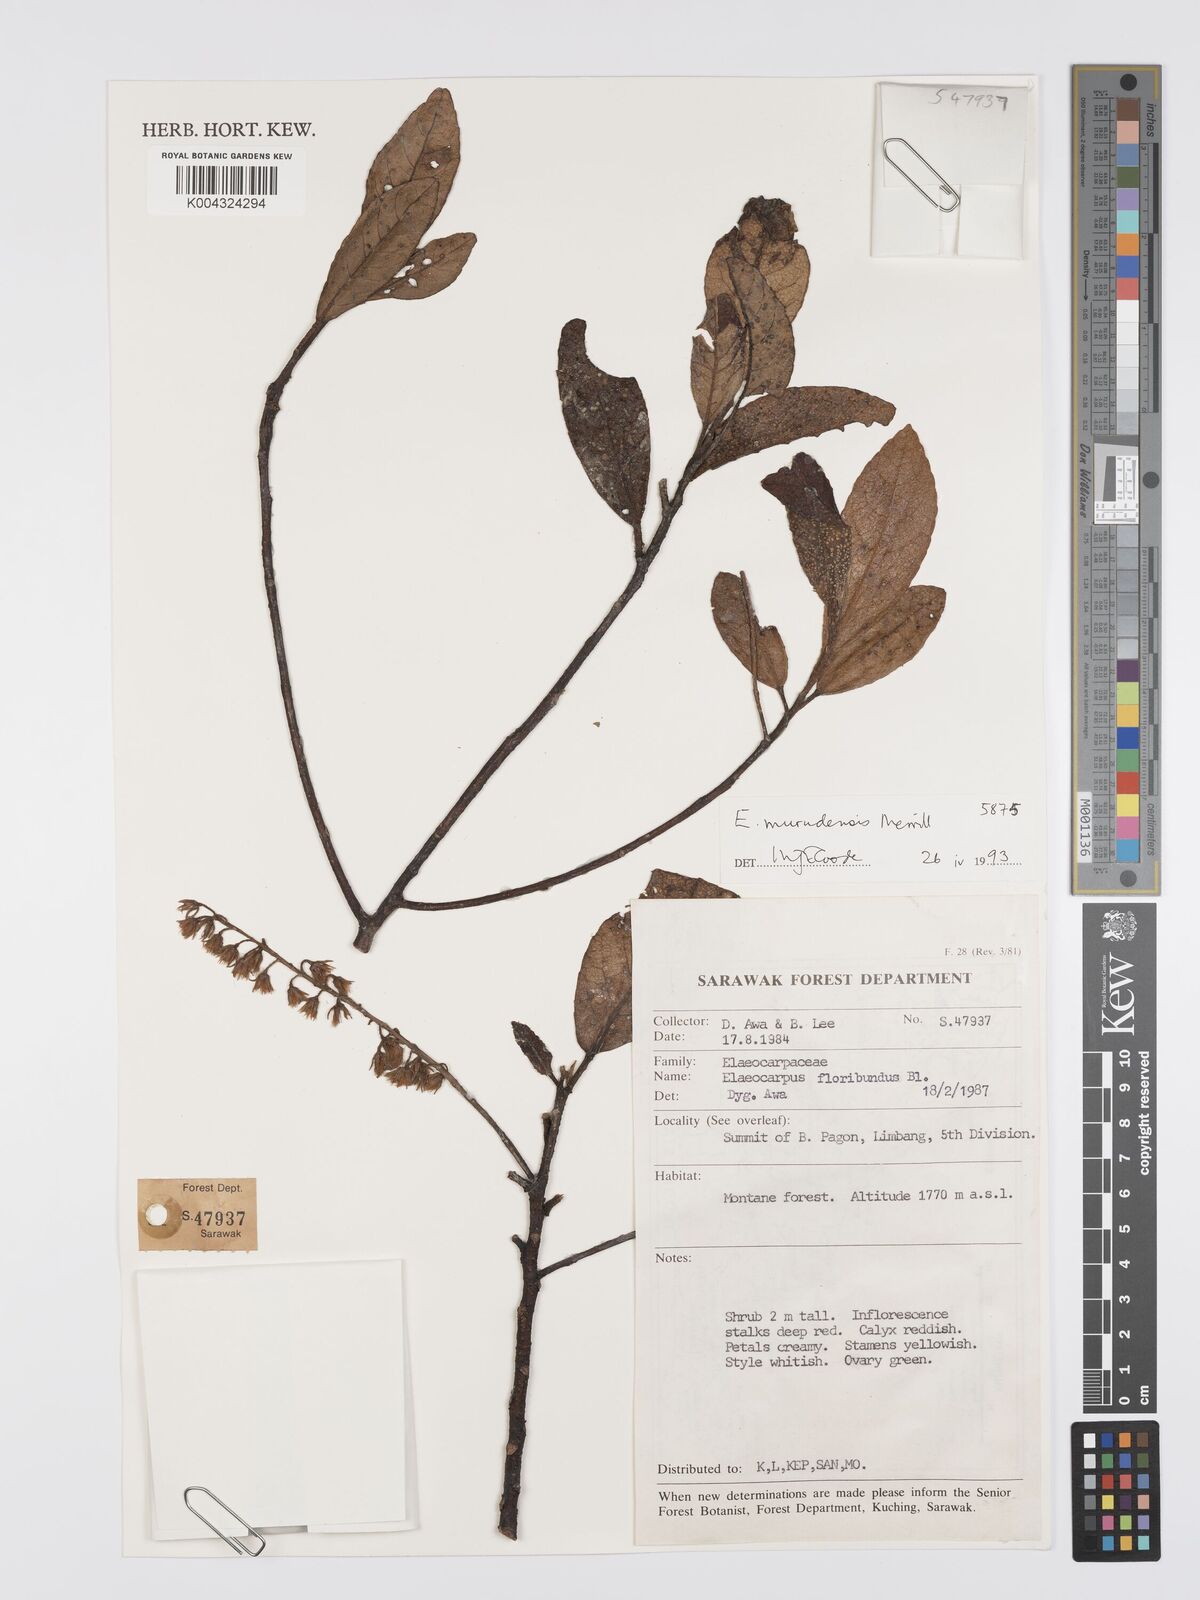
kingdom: Plantae
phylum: Tracheophyta
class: Magnoliopsida
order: Oxalidales
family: Elaeocarpaceae
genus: Elaeocarpus
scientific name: Elaeocarpus murudensis
